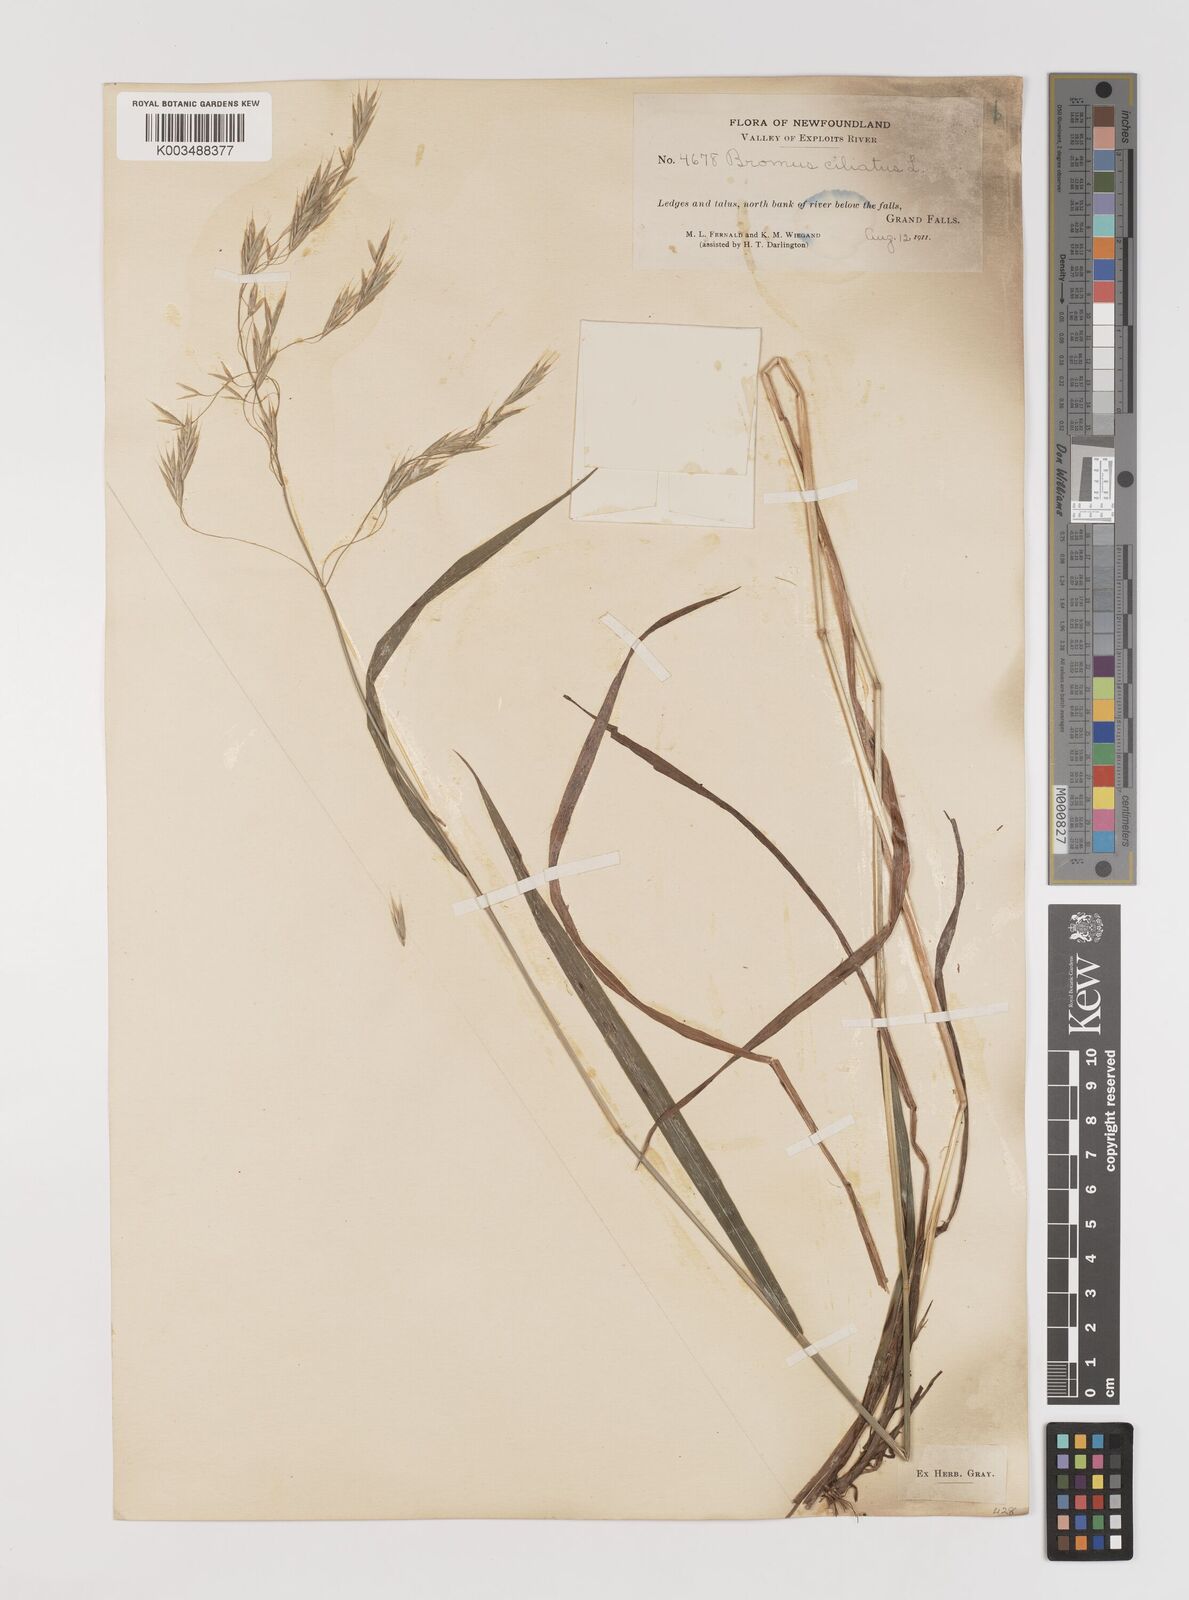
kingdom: Plantae
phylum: Tracheophyta
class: Liliopsida
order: Poales
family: Poaceae
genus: Bromus
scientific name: Bromus ciliatus
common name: Fringe brome
